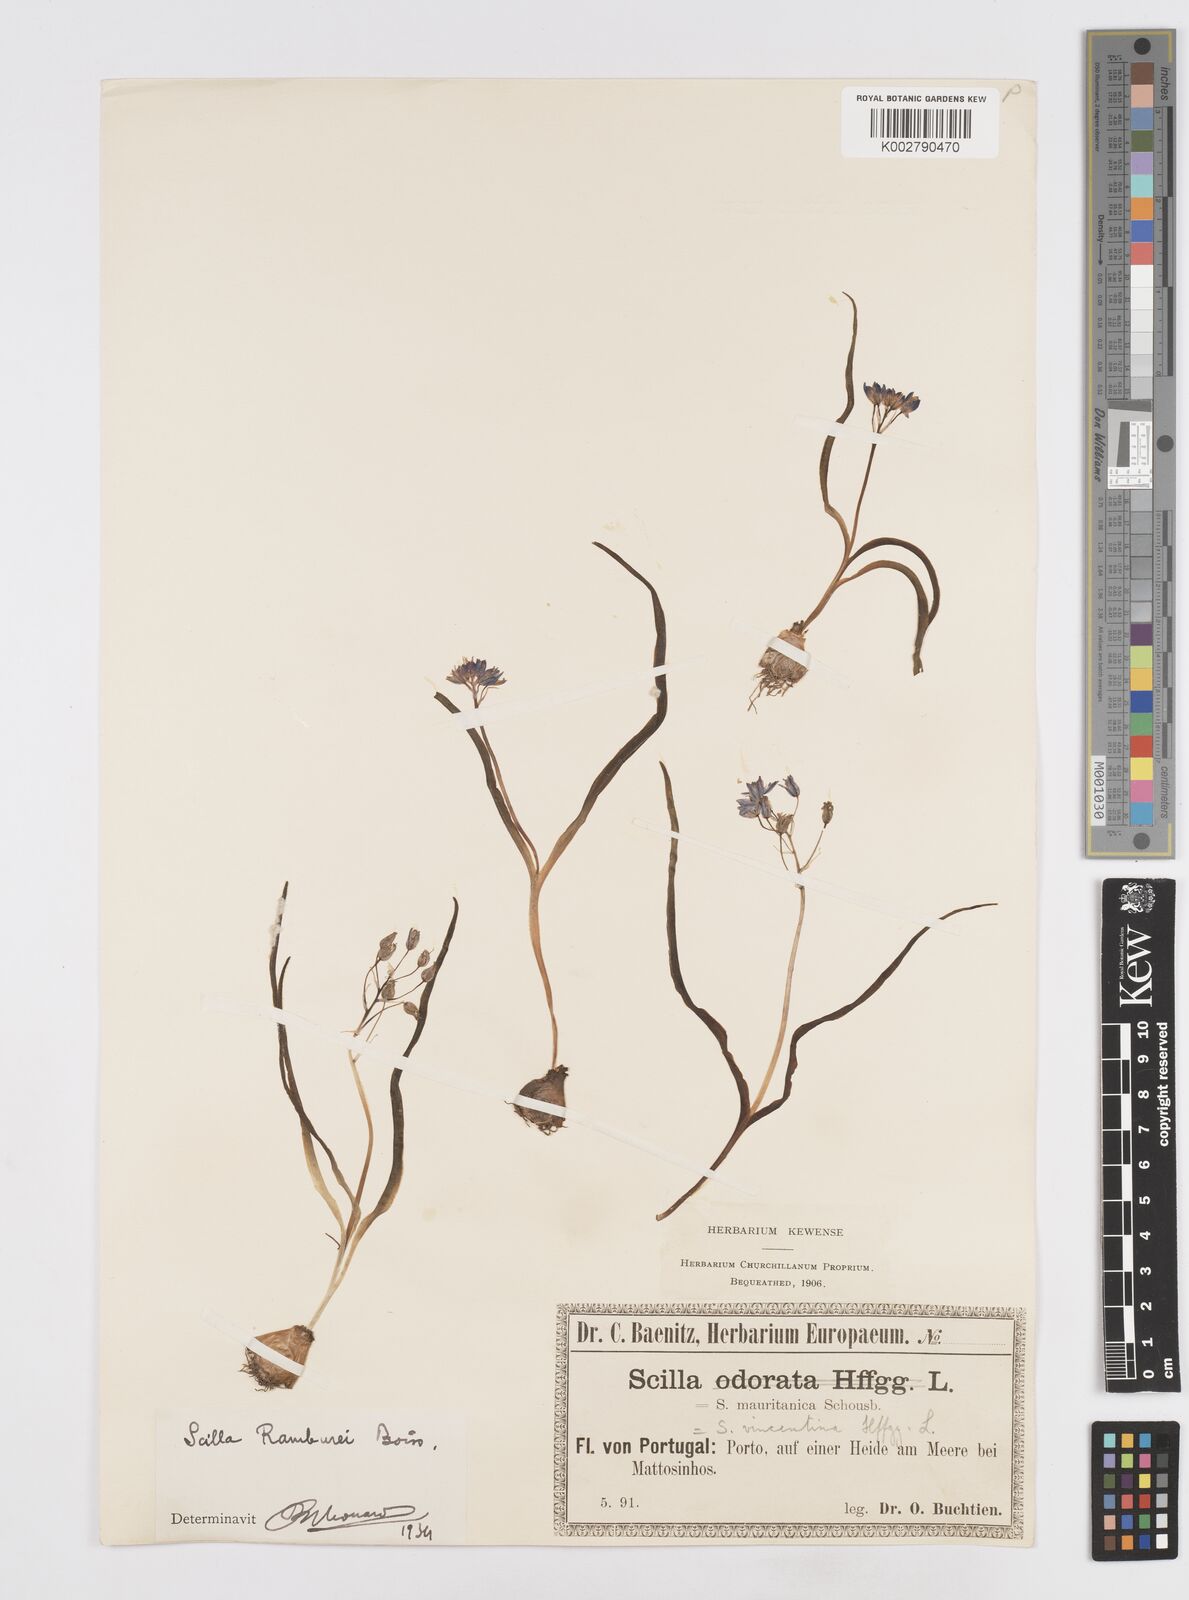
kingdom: Plantae
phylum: Tracheophyta
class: Liliopsida
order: Asparagales
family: Asparagaceae
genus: Scilla
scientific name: Scilla verna
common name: Spring squill
